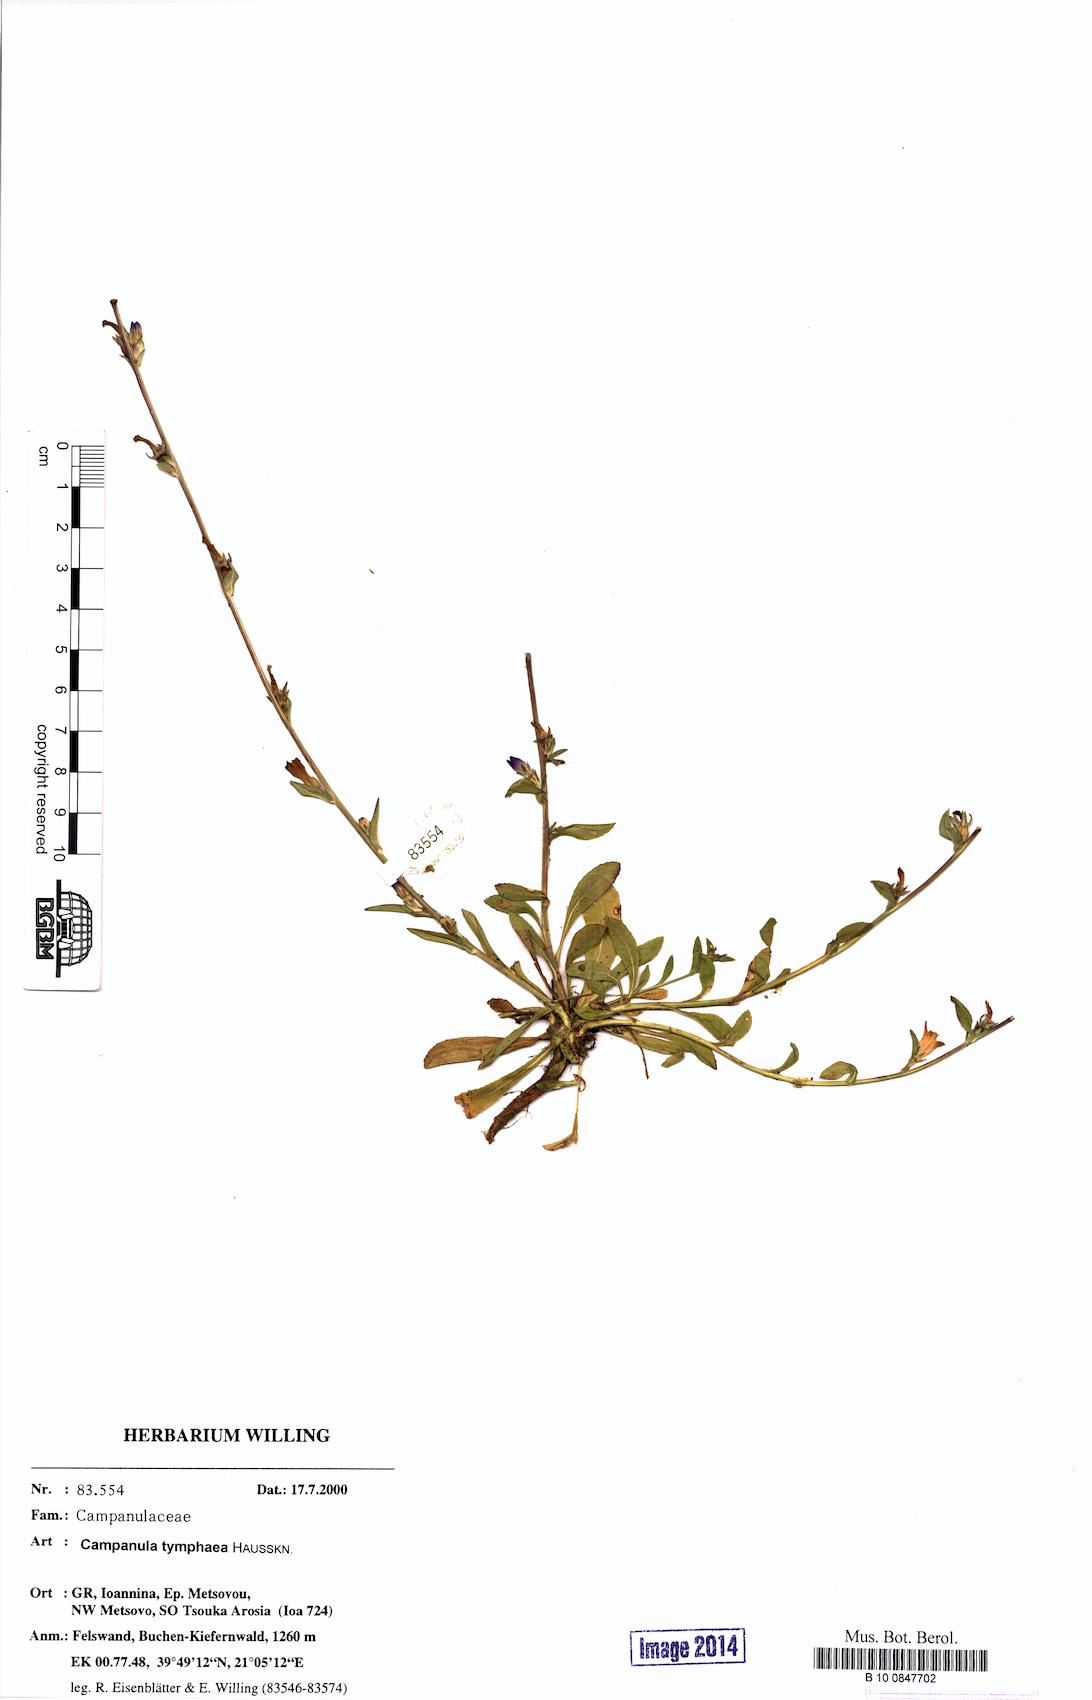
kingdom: Plantae
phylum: Tracheophyta
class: Magnoliopsida
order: Asterales
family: Campanulaceae
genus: Campanula
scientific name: Campanula tymphaea
